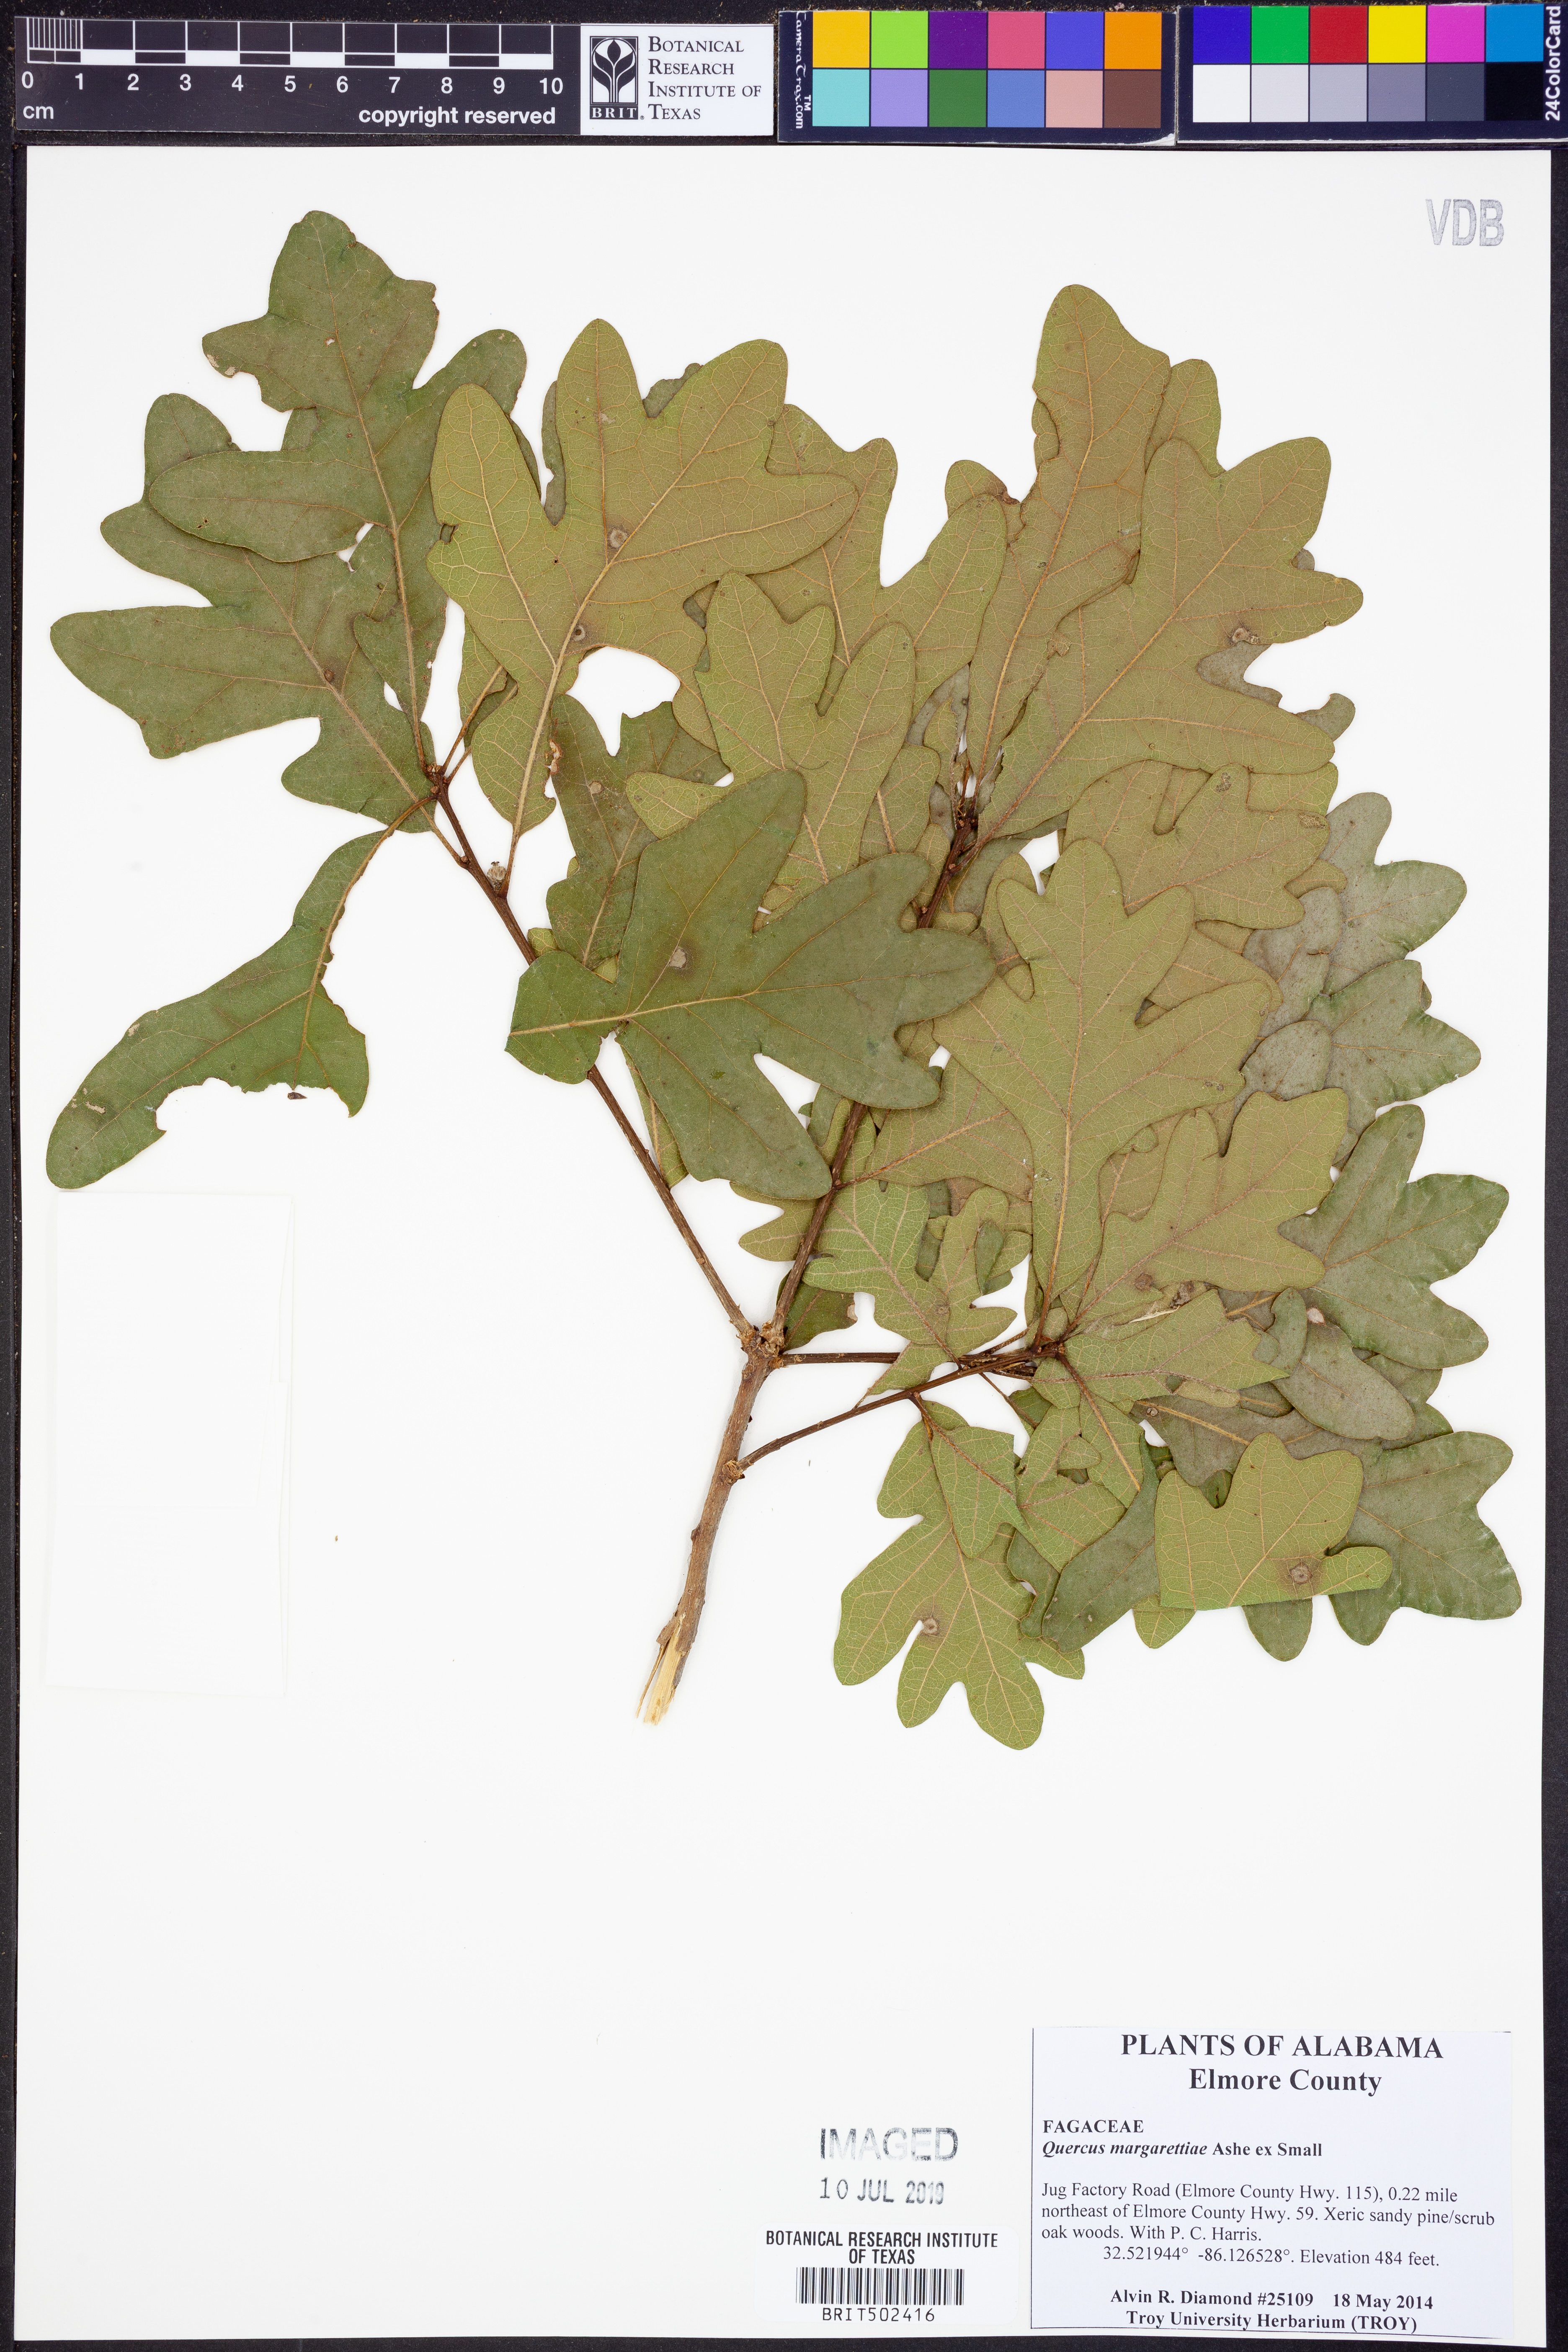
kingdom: Plantae
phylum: Tracheophyta
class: Magnoliopsida
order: Fagales
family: Fagaceae
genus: Quercus
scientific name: Quercus margaretiae
